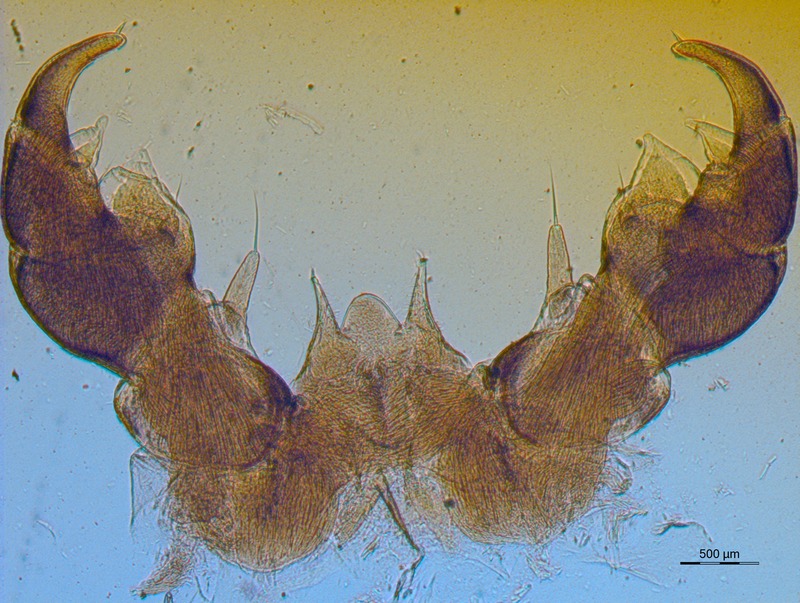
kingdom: Animalia
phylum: Arthropoda
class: Diplopoda
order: Glomerida
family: Glomeridae
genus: Glomeris
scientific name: Glomeris oropensis
